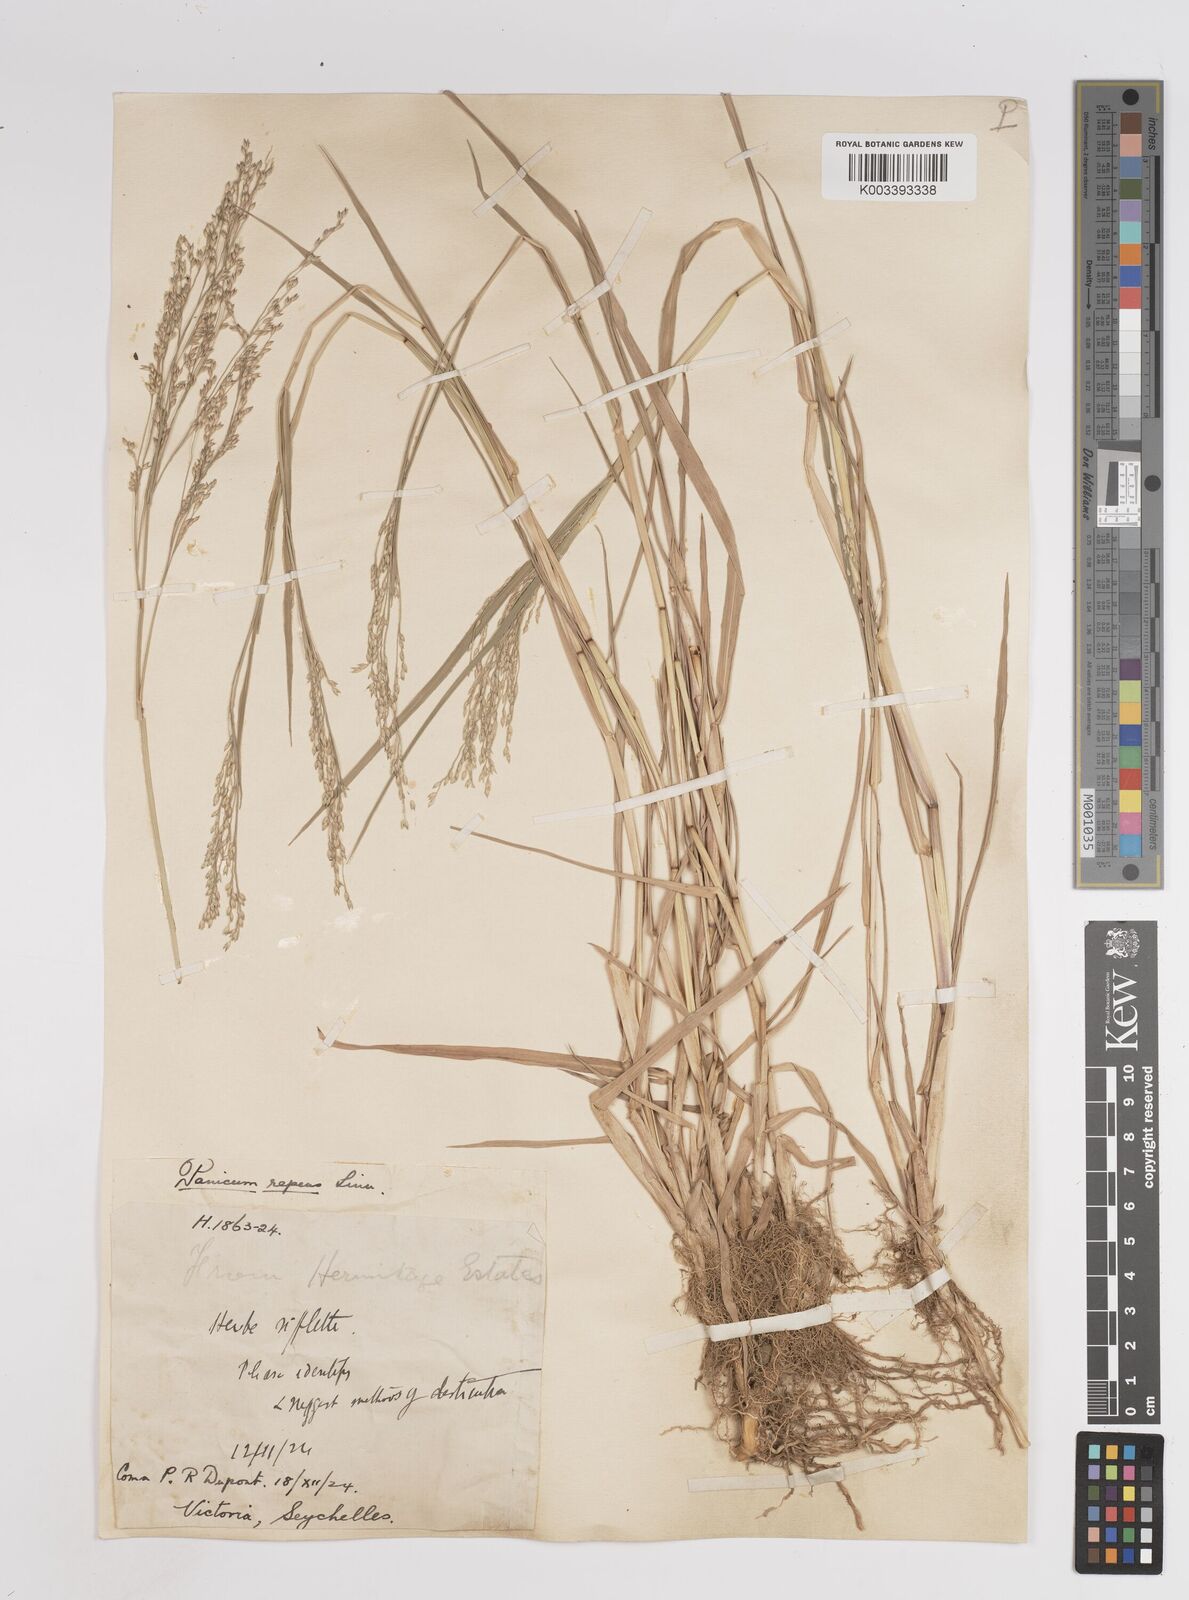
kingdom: Plantae
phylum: Tracheophyta
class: Liliopsida
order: Poales
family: Poaceae
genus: Panicum
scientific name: Panicum repens
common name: Torpedo grass
